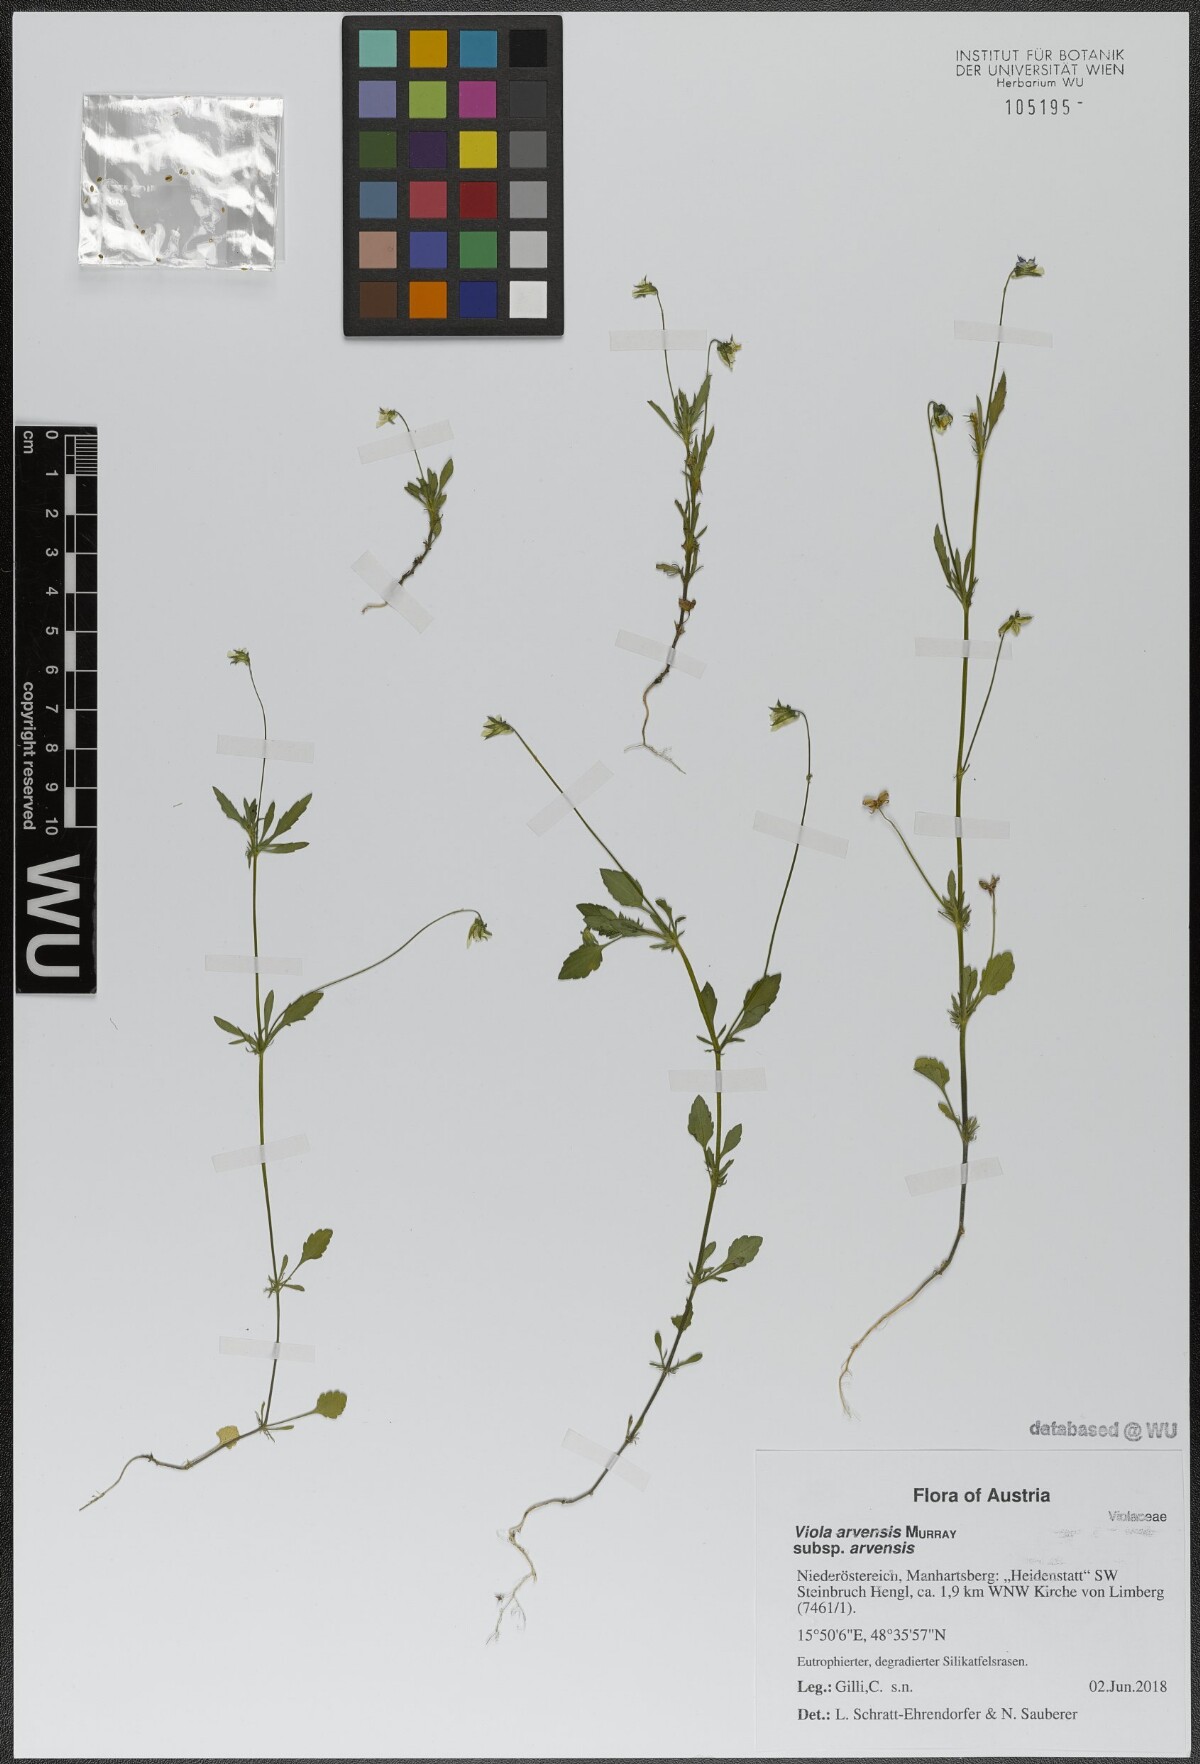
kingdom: Plantae
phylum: Tracheophyta
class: Magnoliopsida
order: Malpighiales
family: Violaceae
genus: Viola
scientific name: Viola arvensis
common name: Field pansy
